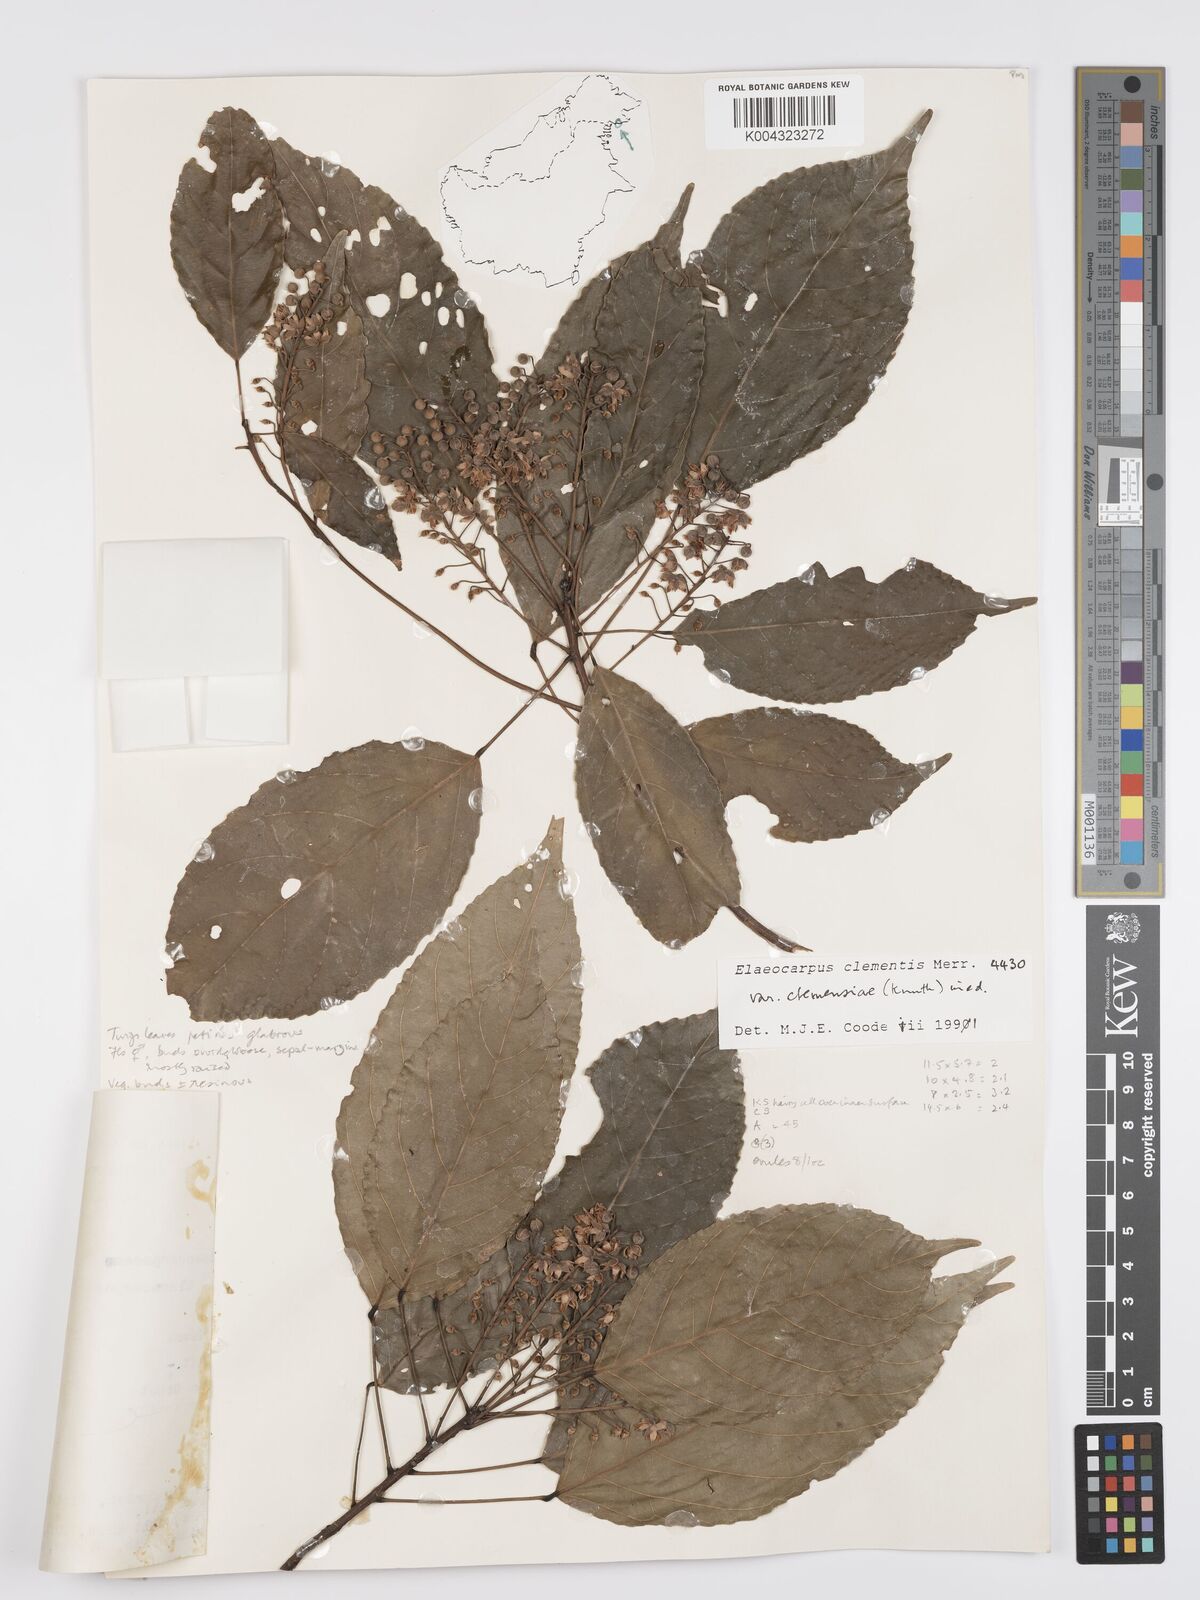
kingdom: Plantae
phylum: Tracheophyta
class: Magnoliopsida
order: Oxalidales
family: Elaeocarpaceae
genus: Elaeocarpus
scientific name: Elaeocarpus clementis
